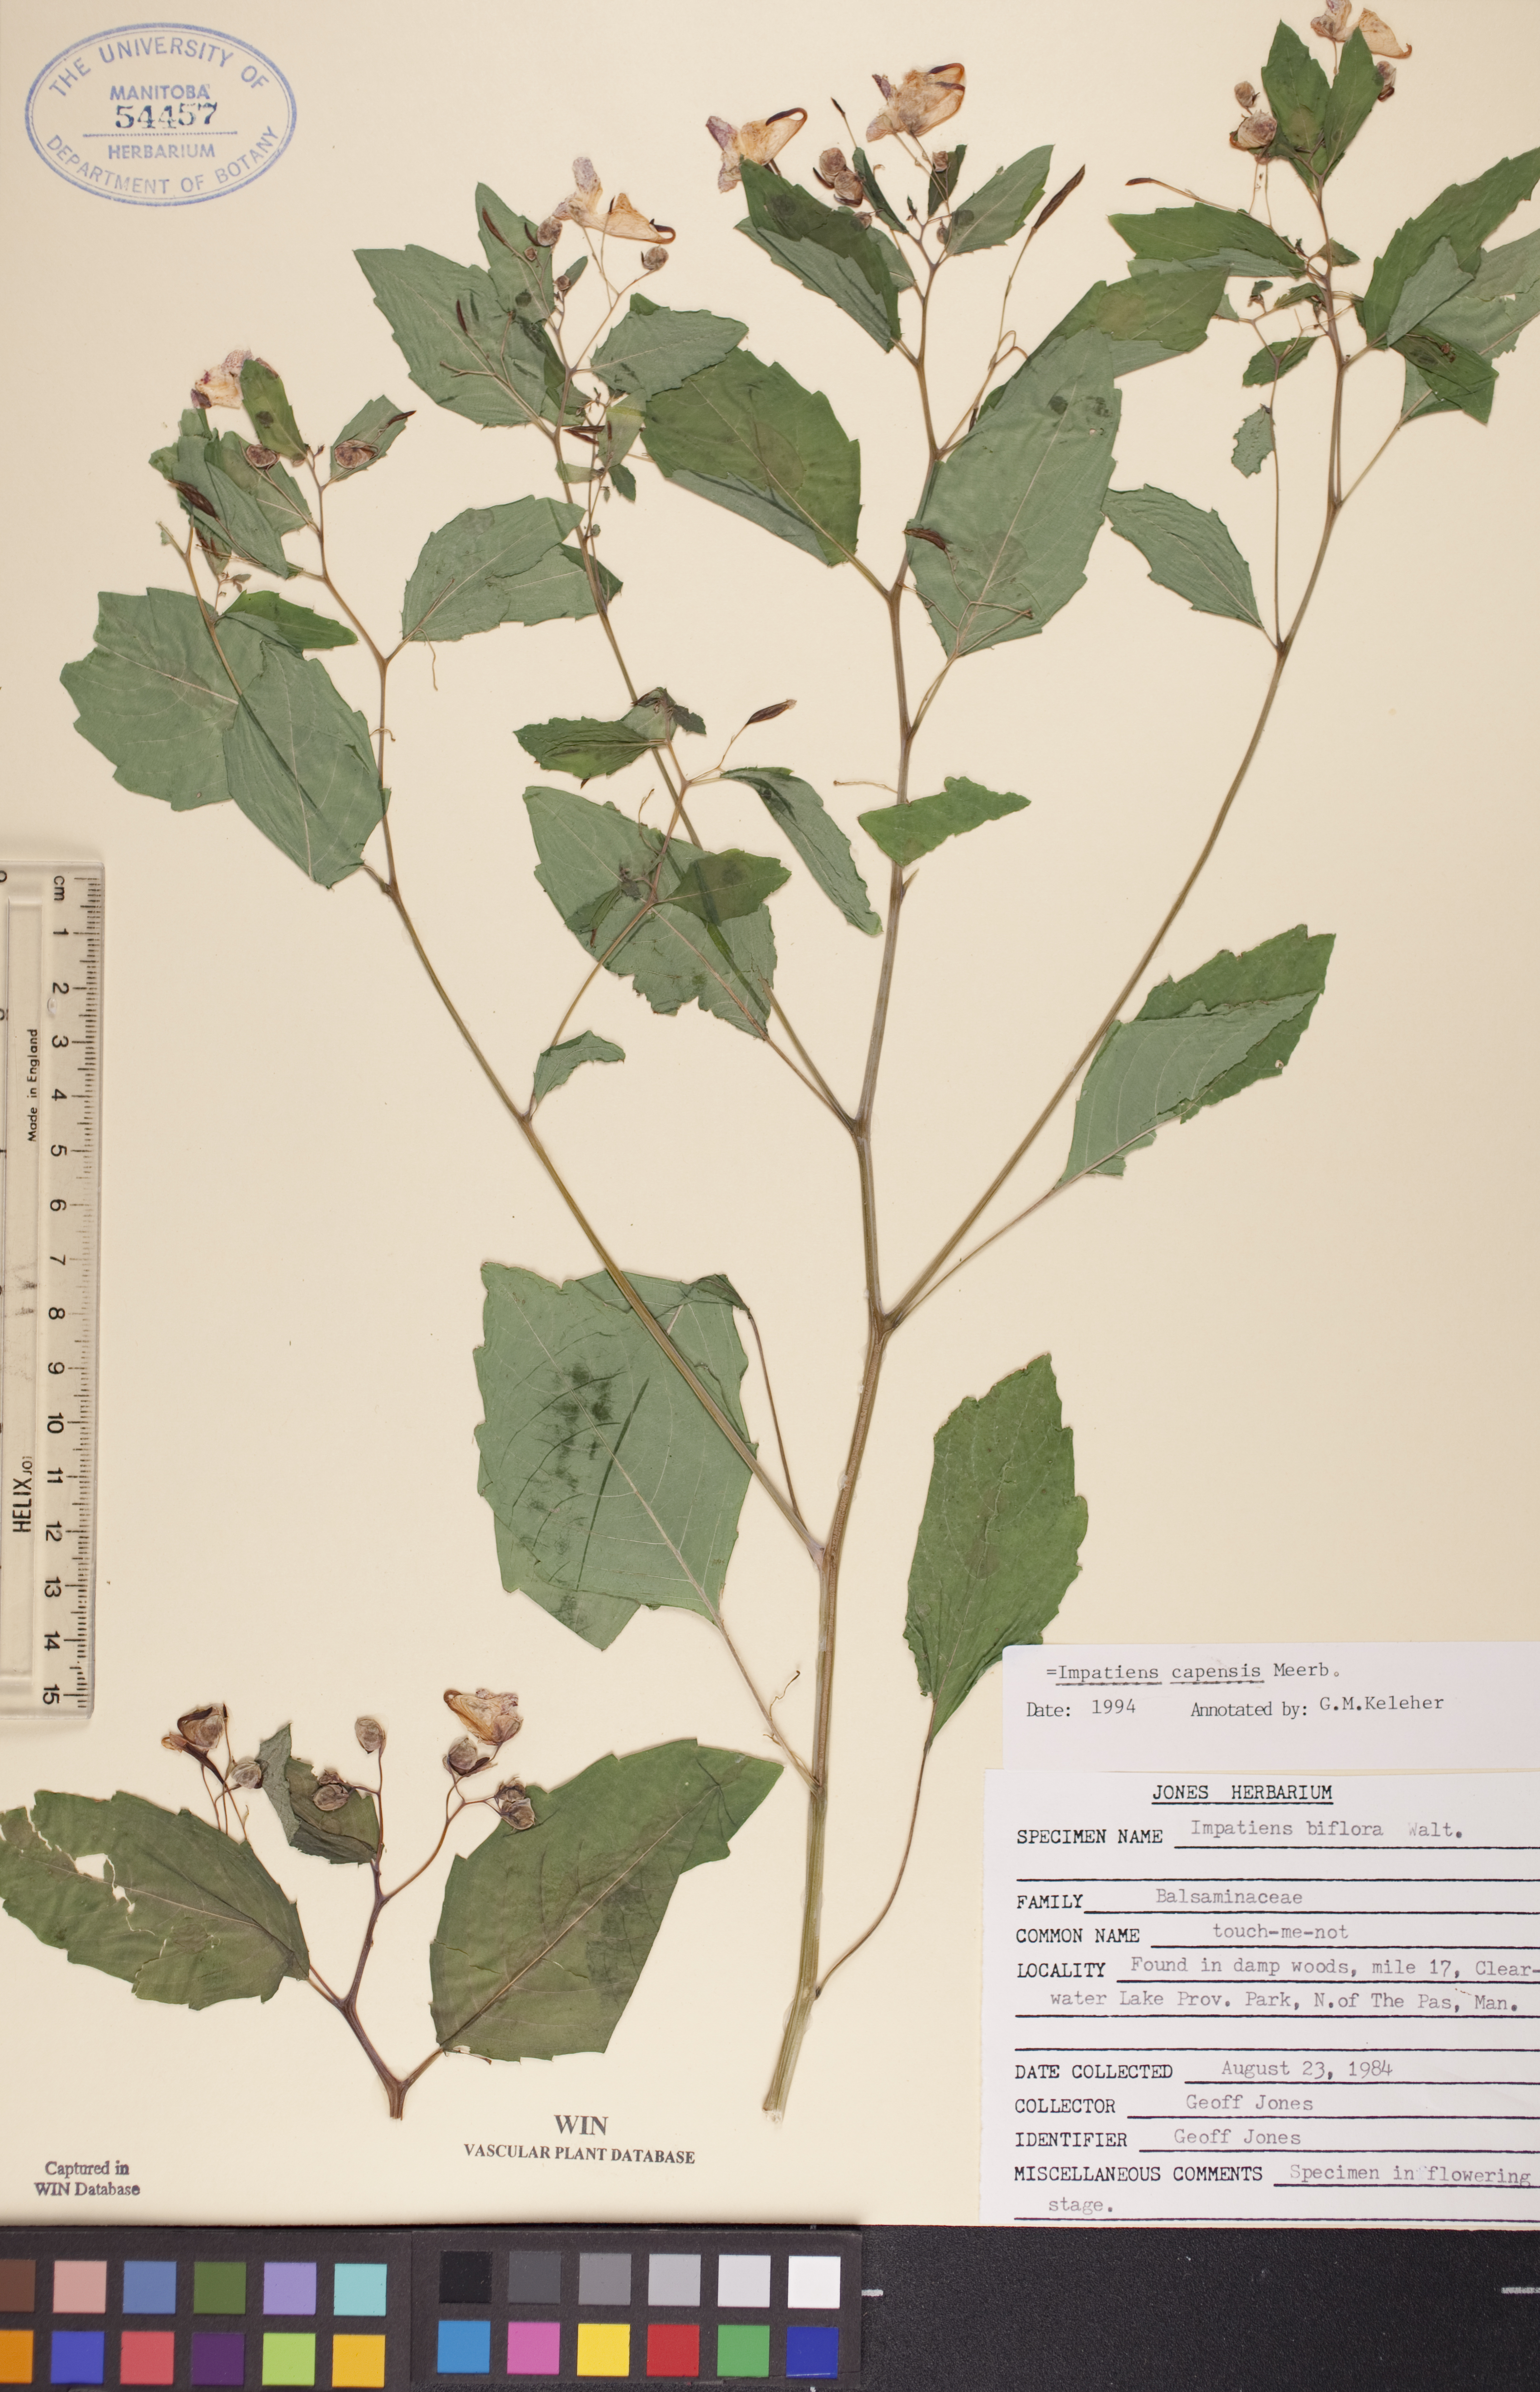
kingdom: Plantae
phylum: Tracheophyta
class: Magnoliopsida
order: Ericales
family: Balsaminaceae
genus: Impatiens
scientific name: Impatiens capensis
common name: Orange balsam
